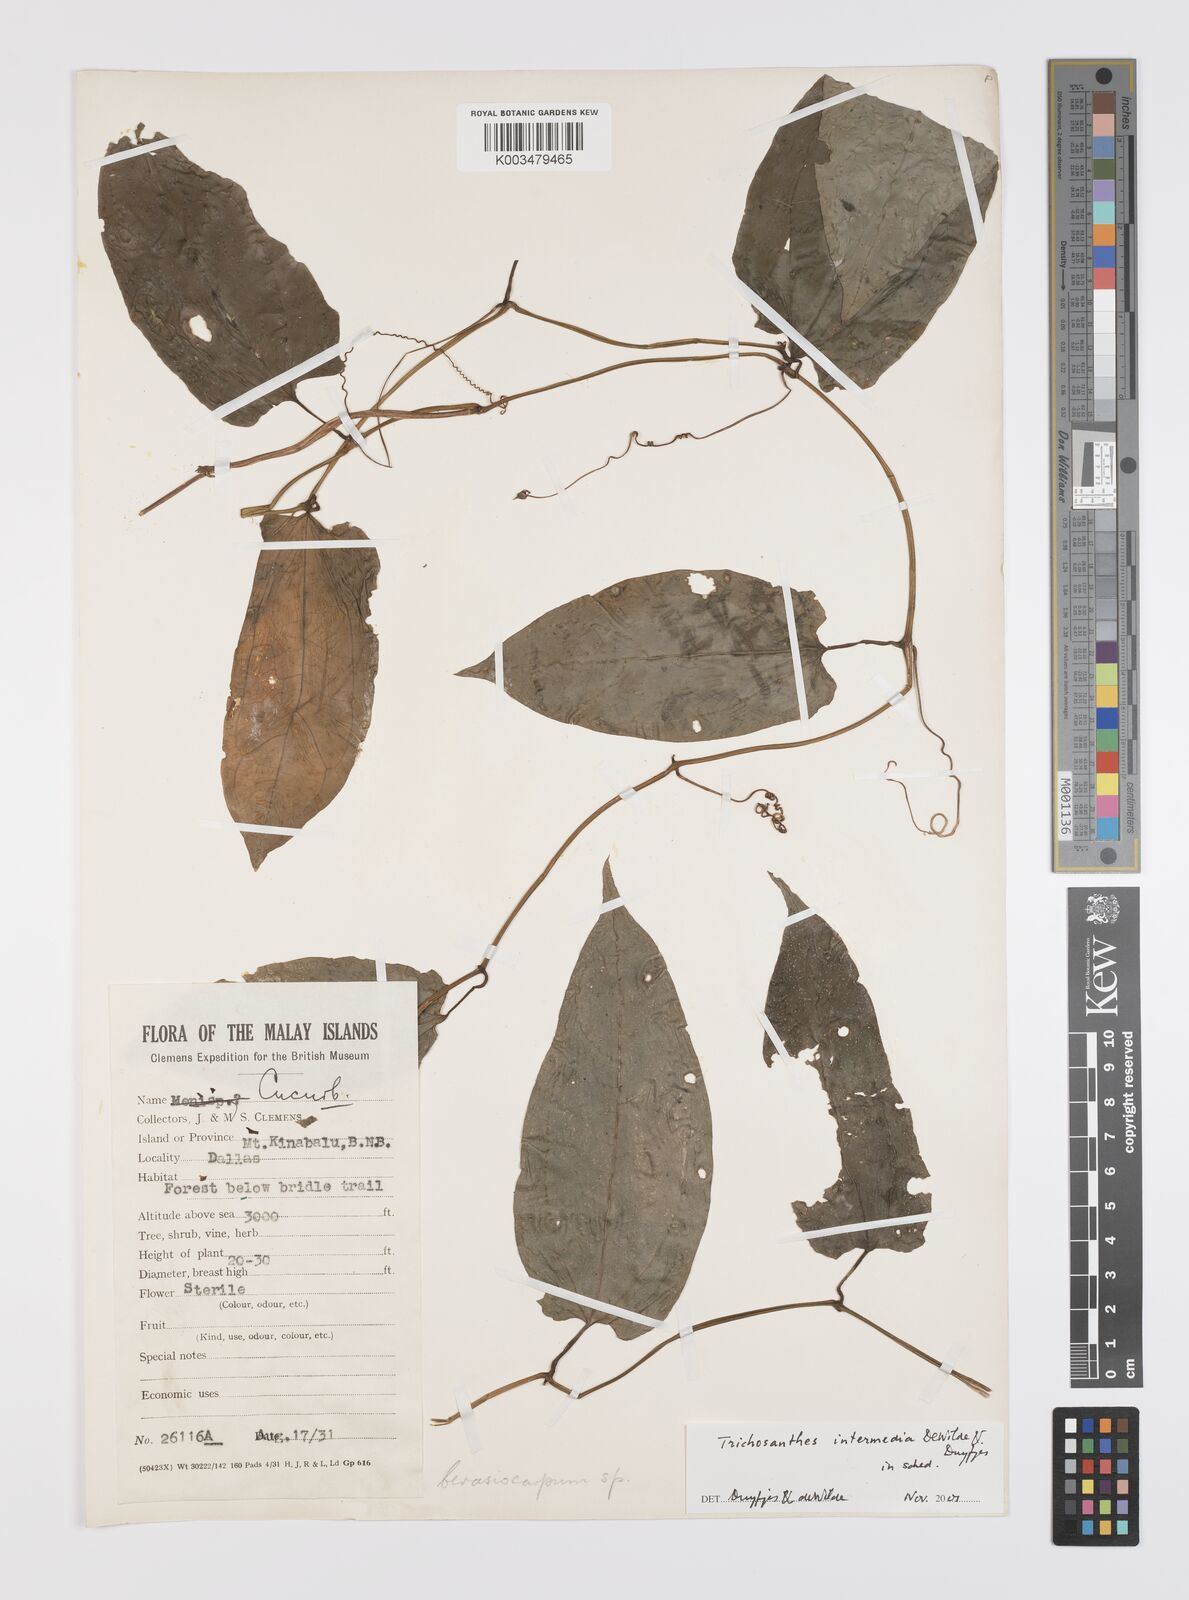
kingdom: Plantae
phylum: Tracheophyta
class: Magnoliopsida
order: Cucurbitales
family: Cucurbitaceae
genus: Trichosanthes
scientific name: Trichosanthes intermedia
